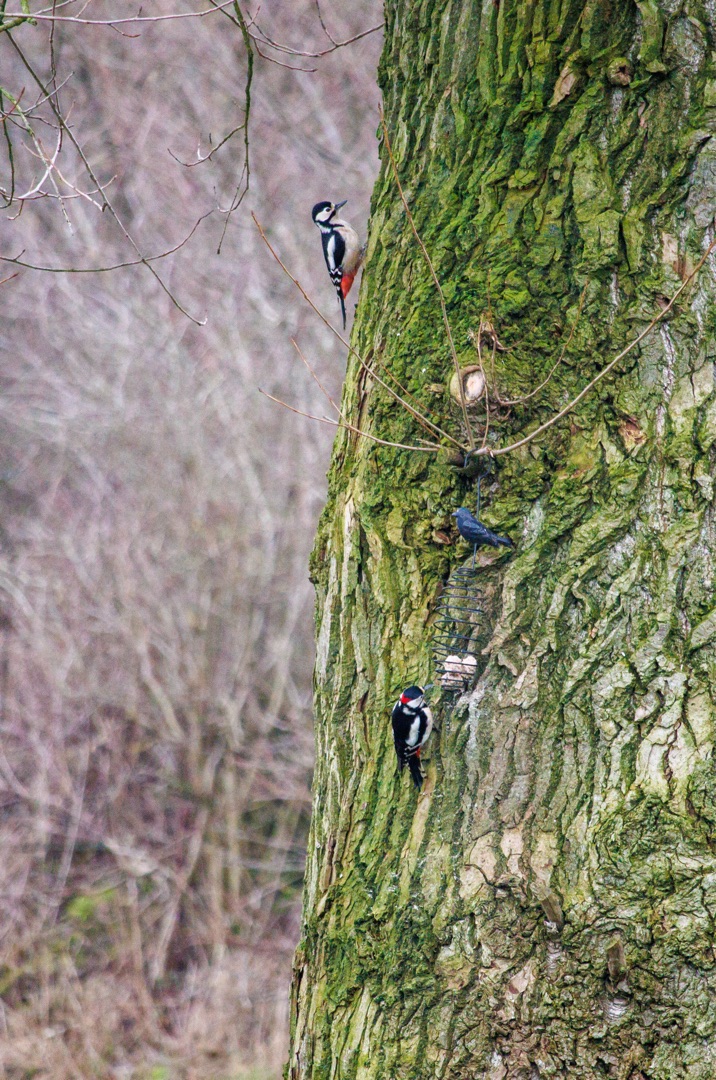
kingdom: Animalia
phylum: Chordata
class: Aves
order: Piciformes
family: Picidae
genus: Dendrocopos
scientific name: Dendrocopos major
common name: Stor flagspætte
